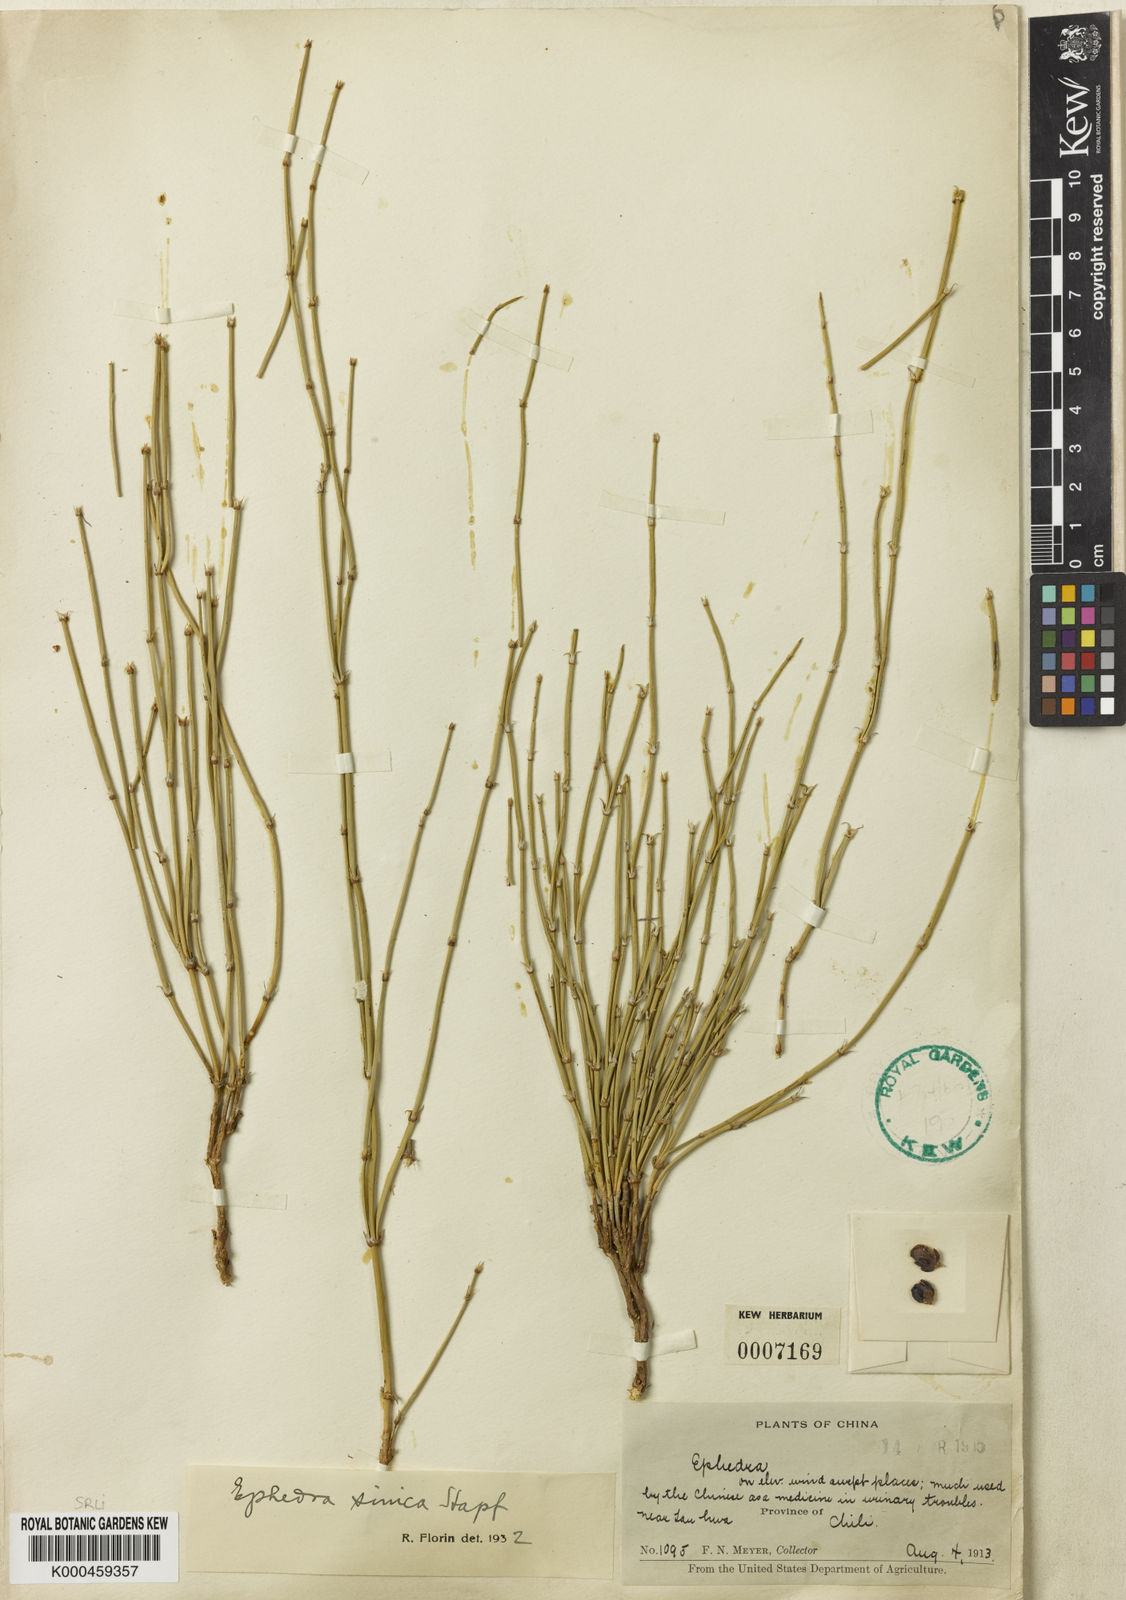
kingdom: Plantae
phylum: Tracheophyta
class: Gnetopsida
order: Ephedrales
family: Ephedraceae
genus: Ephedra
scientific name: Ephedra sinica
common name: Chinese ephedra
